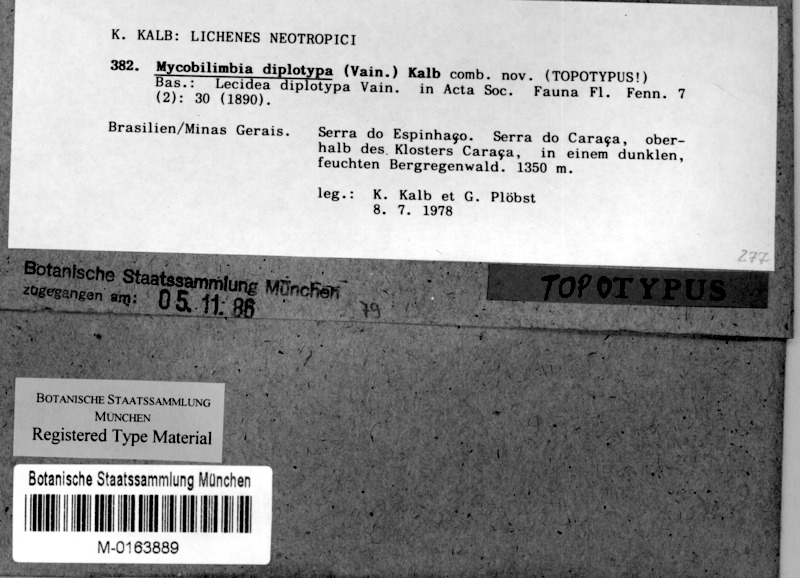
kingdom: Fungi
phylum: Ascomycota
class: Lecanoromycetes
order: Lecideales
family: Porpidiaceae
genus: Mycobilimbia
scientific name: Mycobilimbia diplotypa
